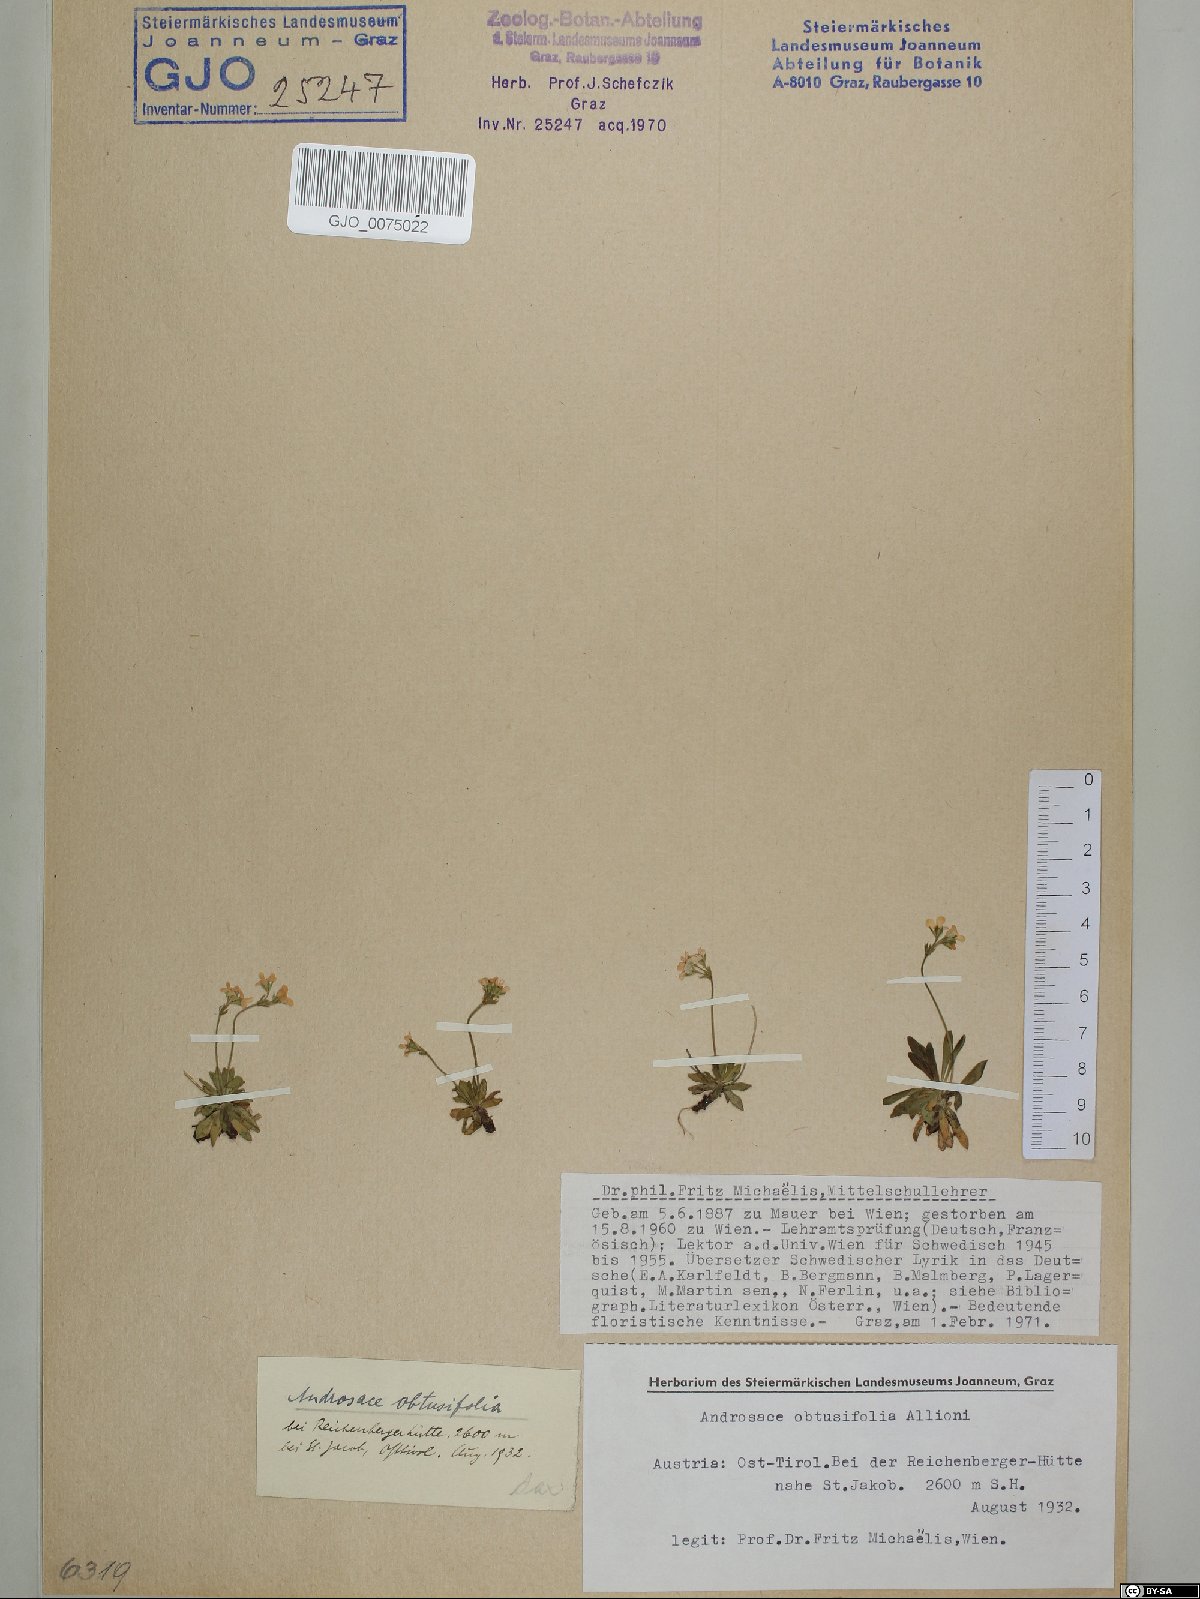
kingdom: Plantae
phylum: Tracheophyta
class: Magnoliopsida
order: Ericales
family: Primulaceae
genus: Androsace
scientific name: Androsace obtusifolia
